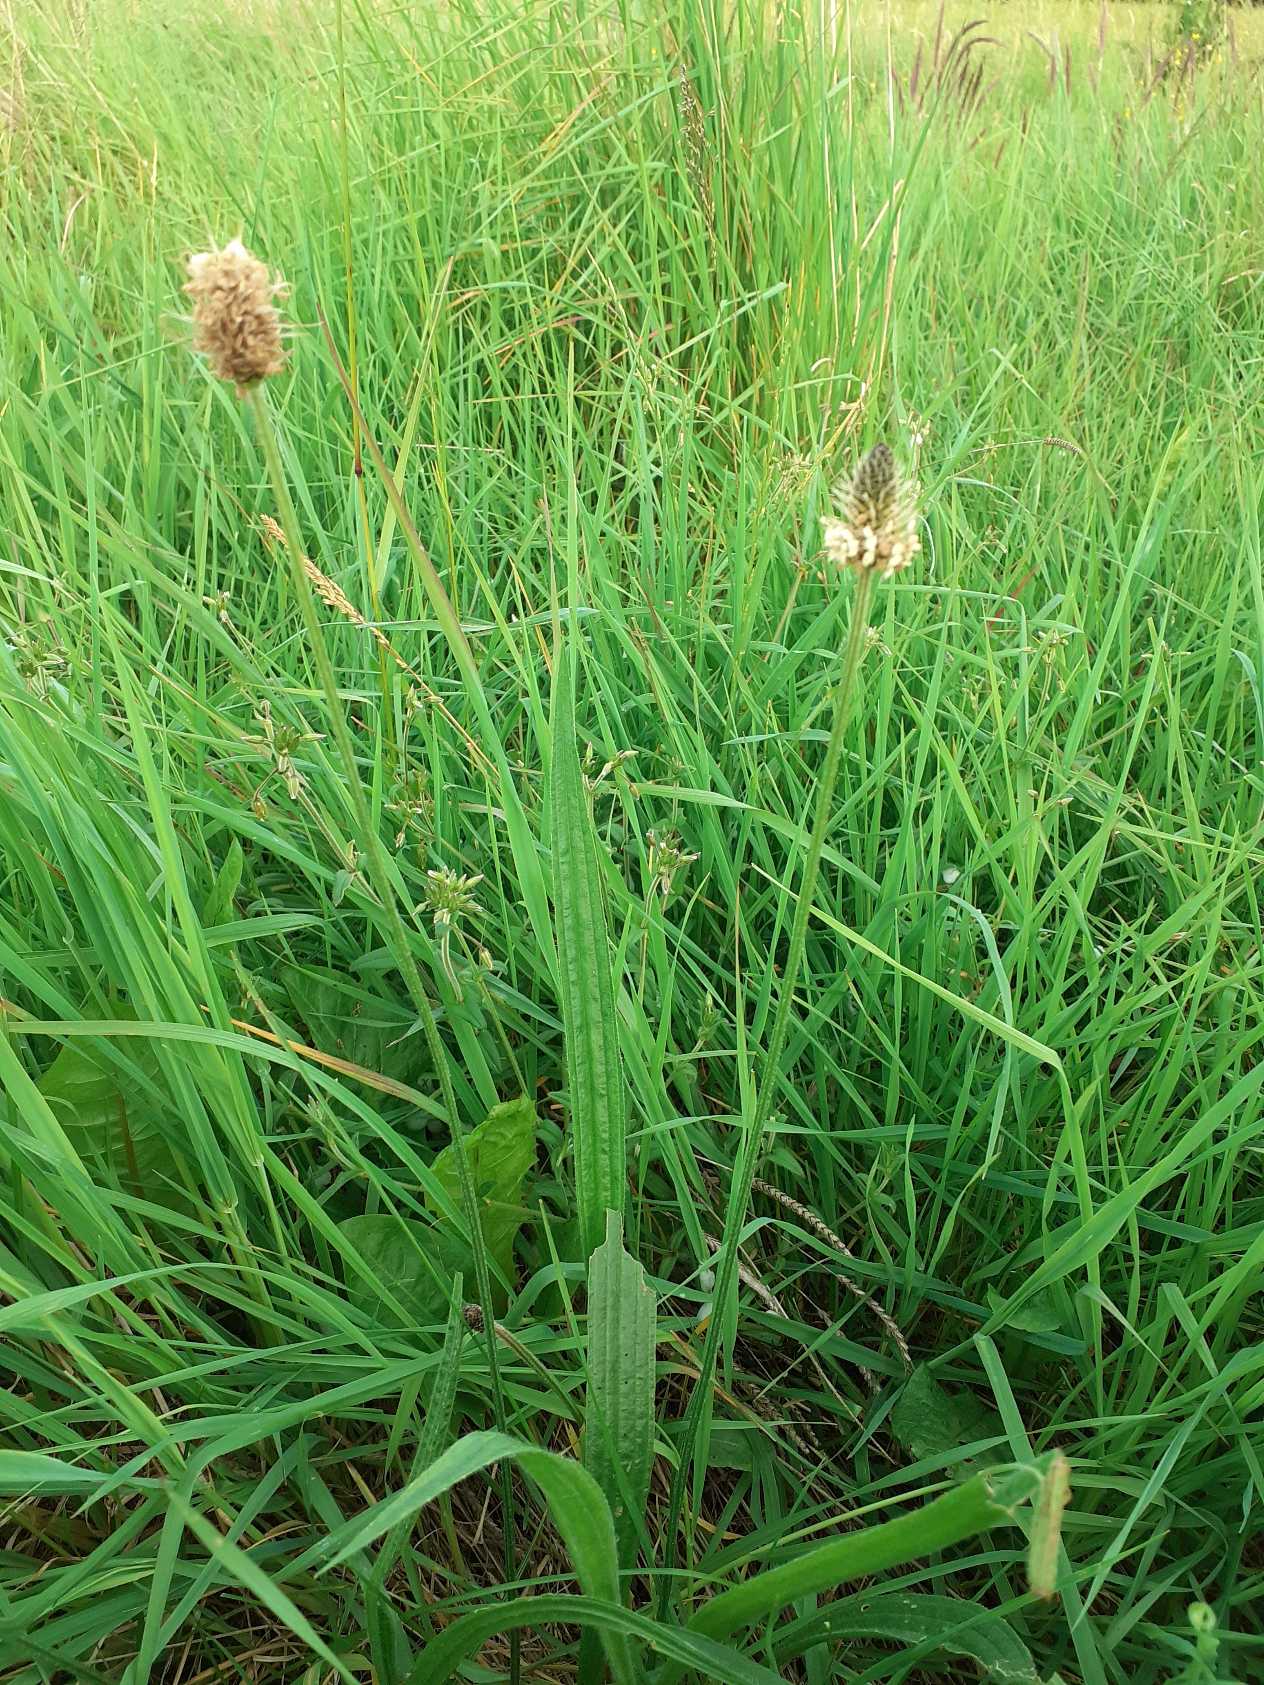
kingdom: Plantae
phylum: Tracheophyta
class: Magnoliopsida
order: Lamiales
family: Plantaginaceae
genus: Plantago
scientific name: Plantago lanceolata
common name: Lancet-vejbred
